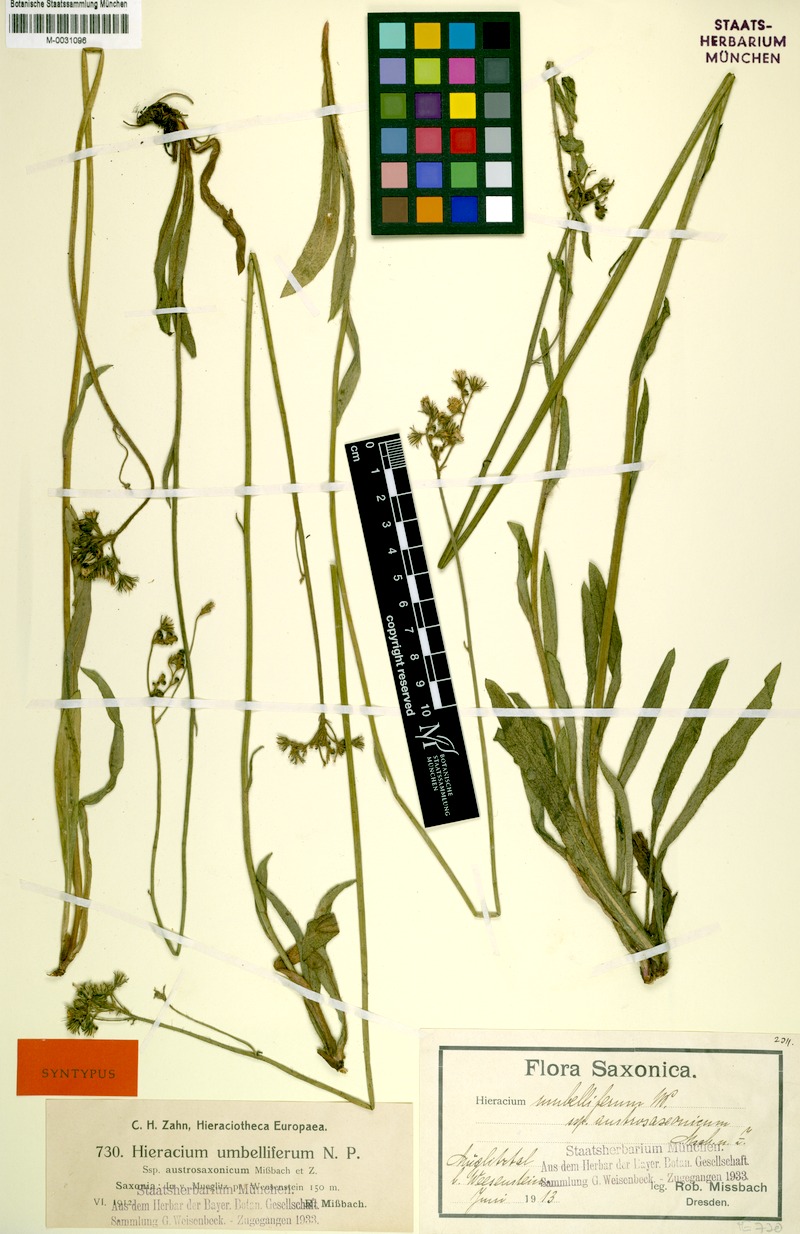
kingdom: Plantae
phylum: Tracheophyta
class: Magnoliopsida
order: Asterales
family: Asteraceae
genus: Pilosella
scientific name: Pilosella densiflora
